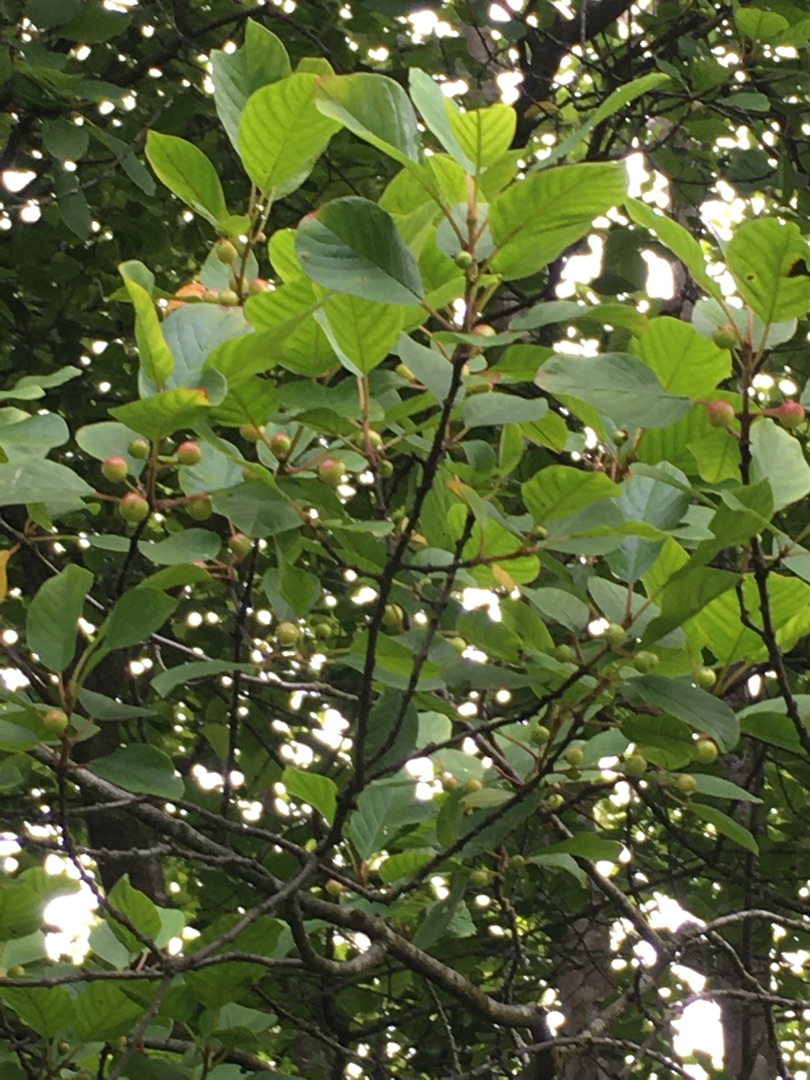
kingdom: Plantae
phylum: Tracheophyta
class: Magnoliopsida
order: Rosales
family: Rhamnaceae
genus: Frangula
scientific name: Frangula alnus
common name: Tørst
